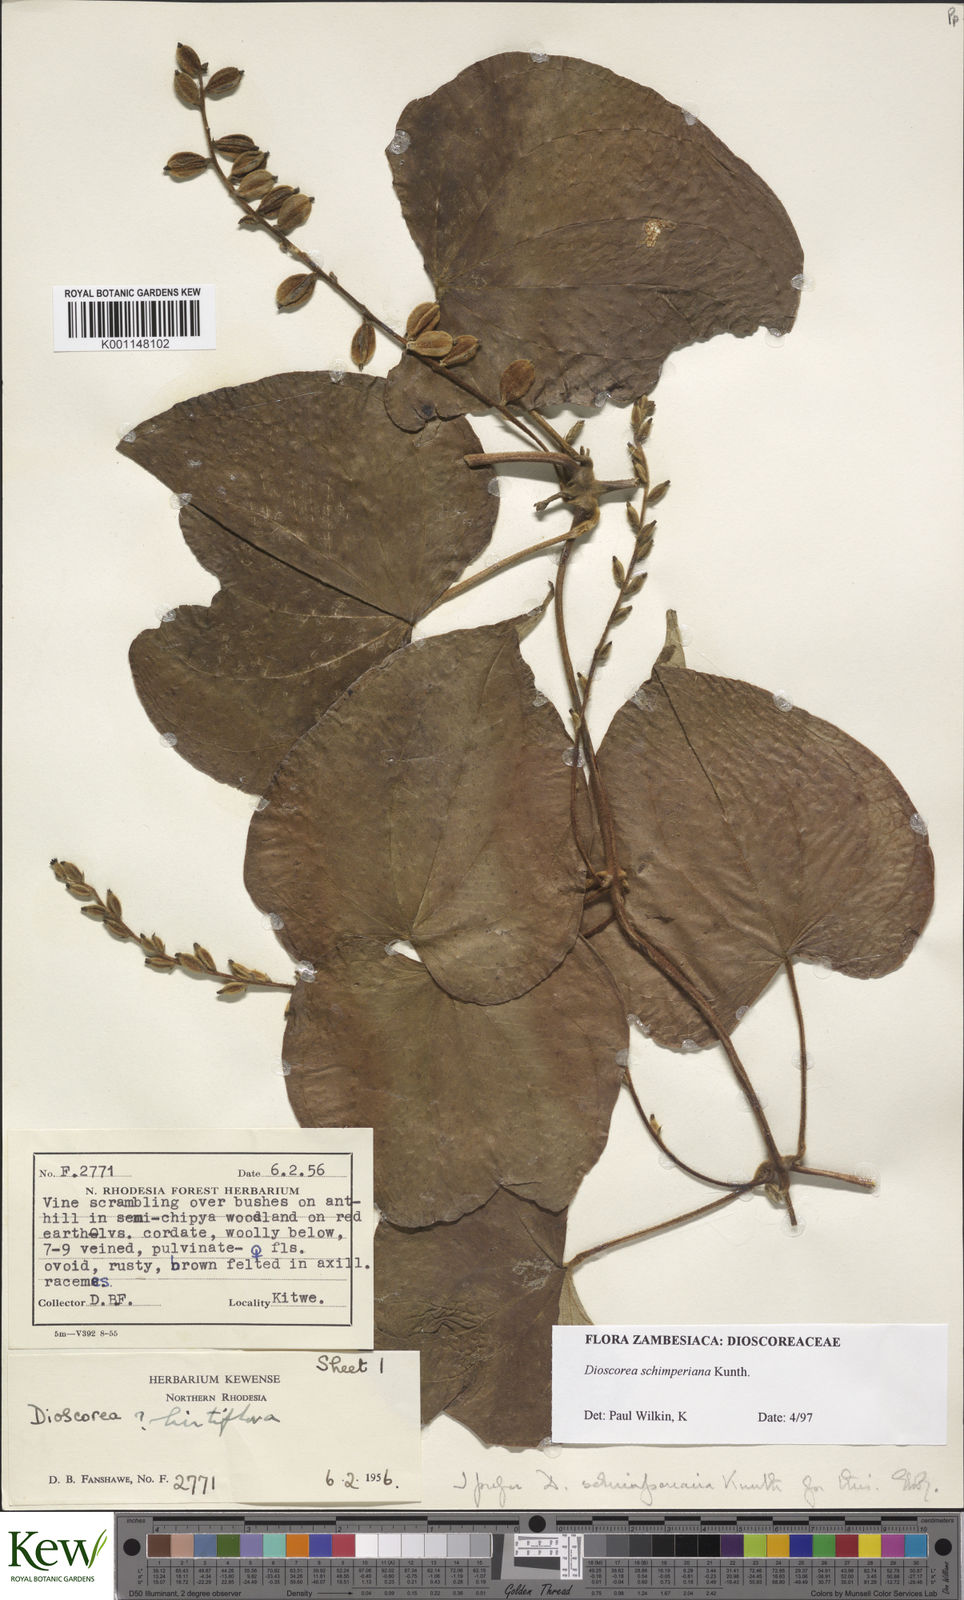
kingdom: Plantae
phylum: Tracheophyta
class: Liliopsida
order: Dioscoreales
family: Dioscoreaceae
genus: Dioscorea
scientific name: Dioscorea schimperiana
